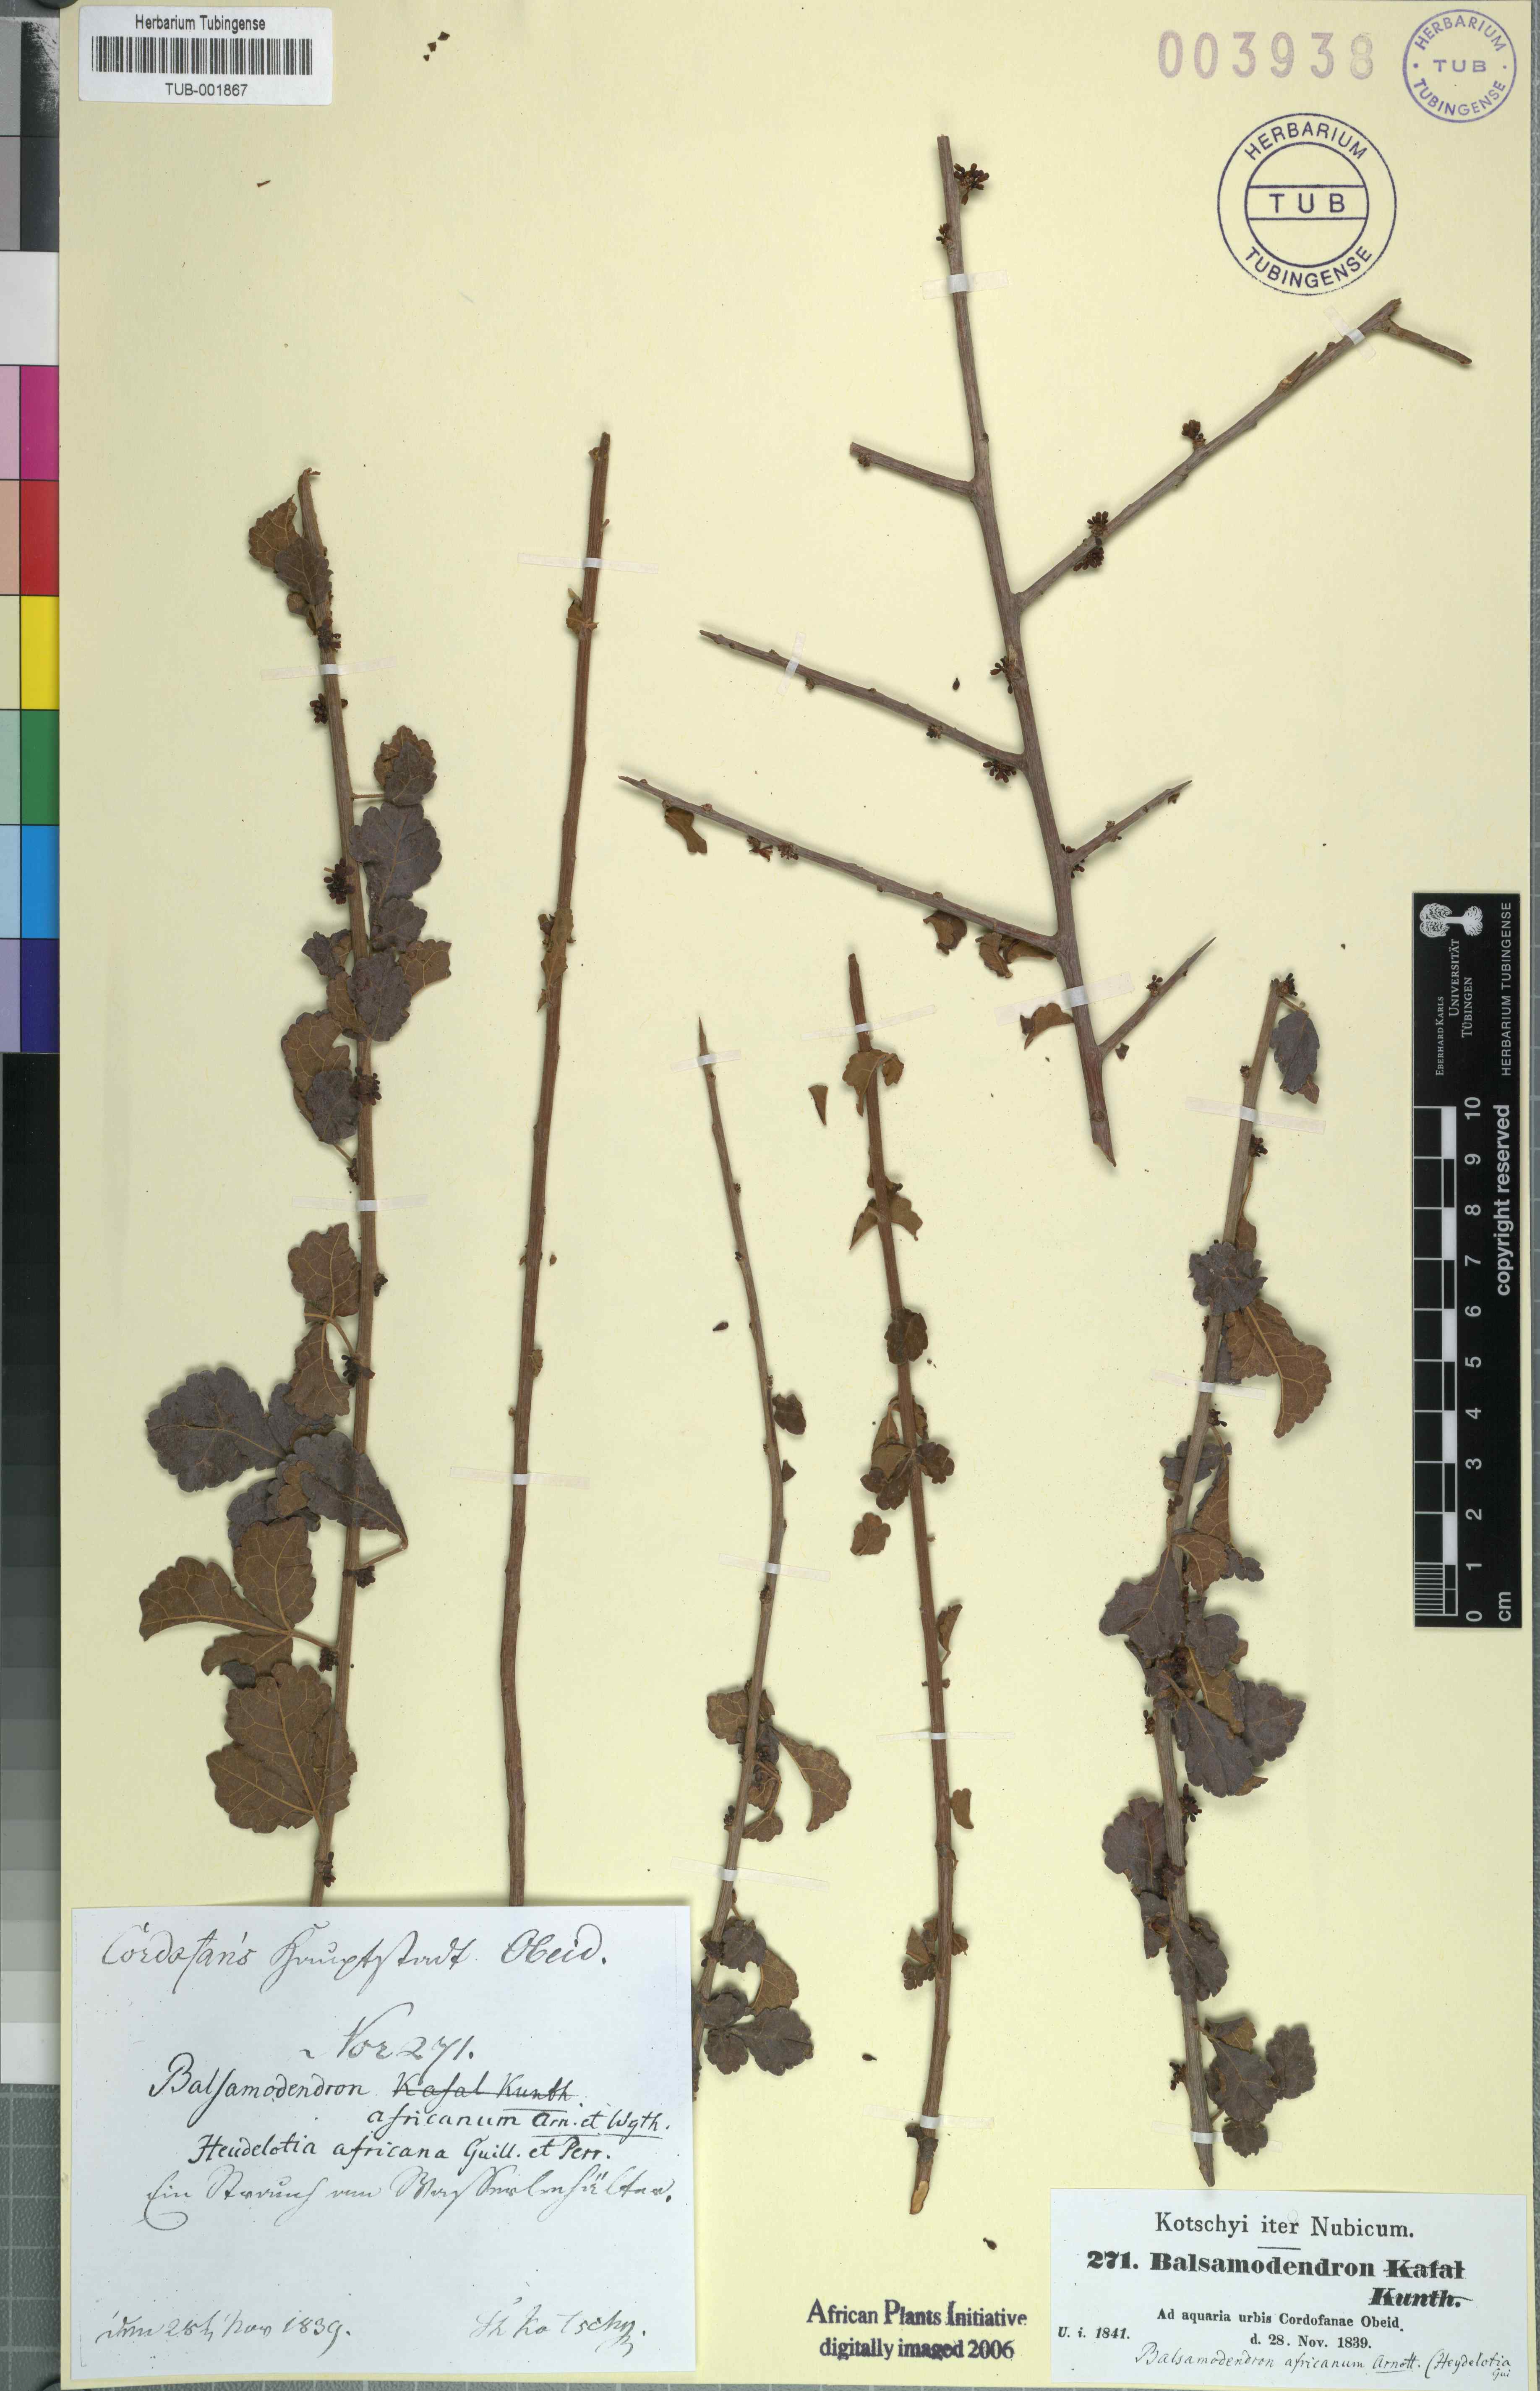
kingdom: Plantae
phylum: Tracheophyta
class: Magnoliopsida
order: Sapindales
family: Burseraceae
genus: Commiphora
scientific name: Commiphora africana
